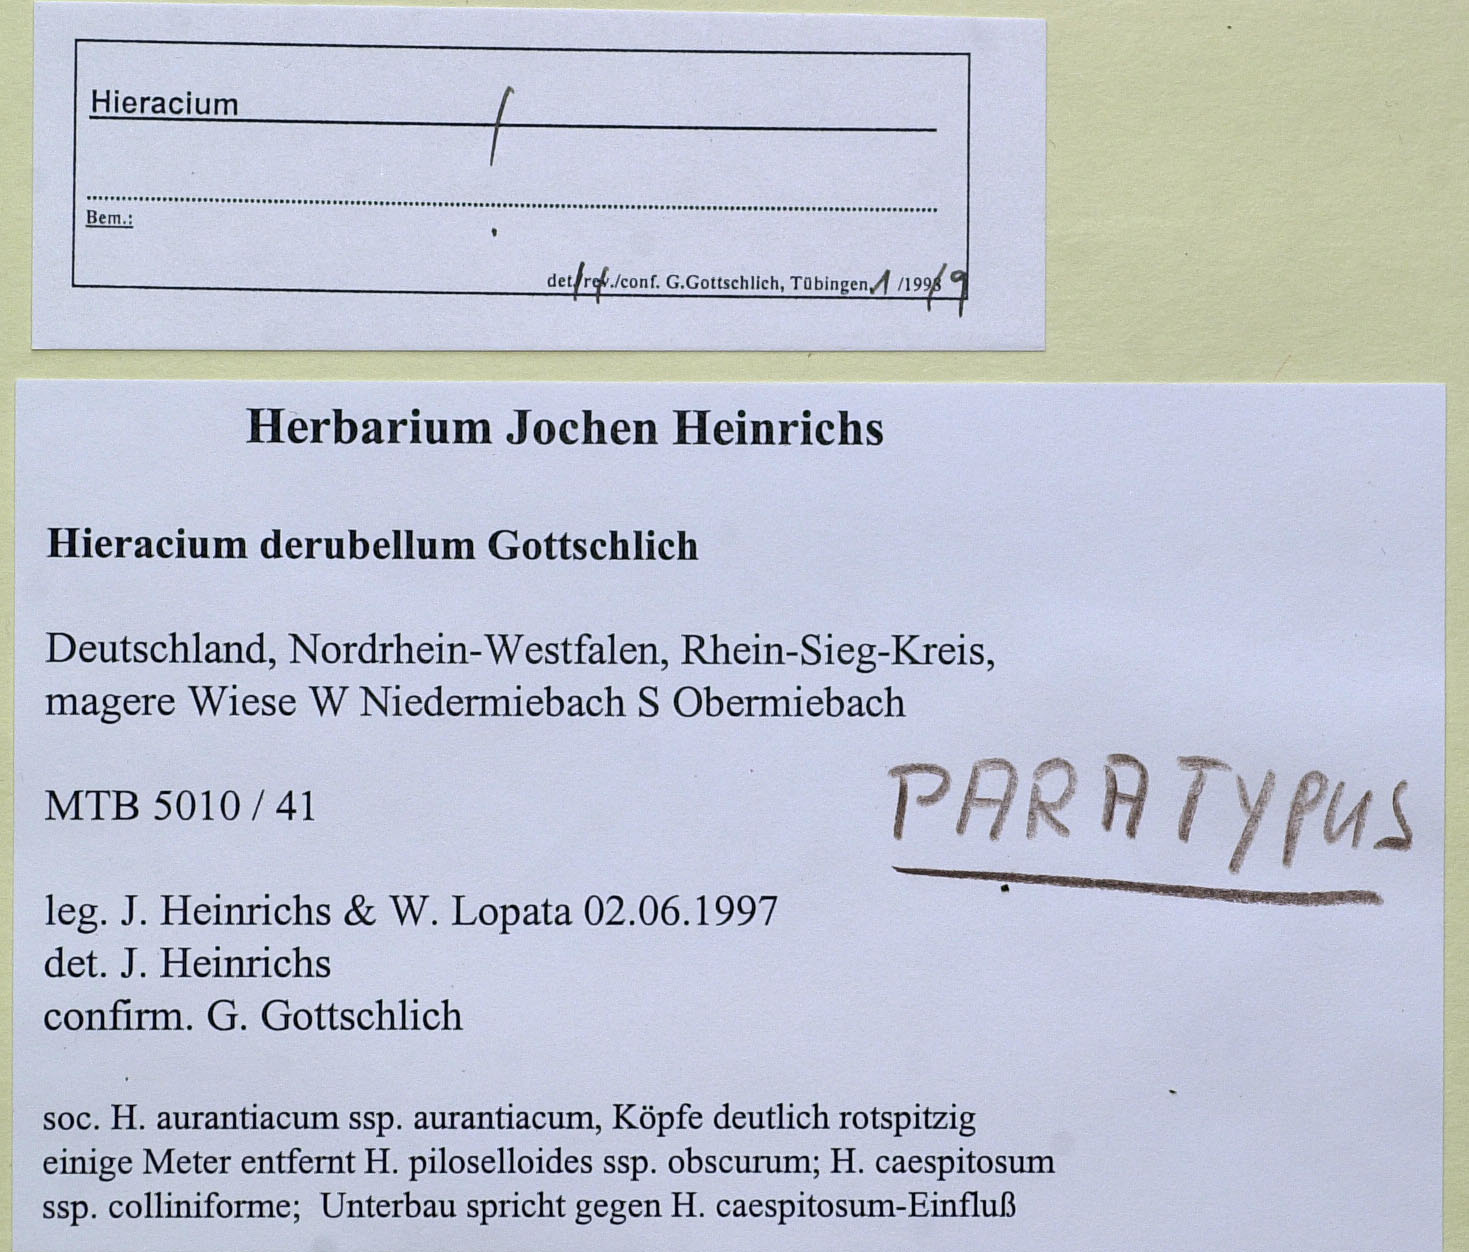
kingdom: Plantae
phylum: Tracheophyta
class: Magnoliopsida
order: Asterales
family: Asteraceae
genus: Pilosella
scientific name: Pilosella derubella
